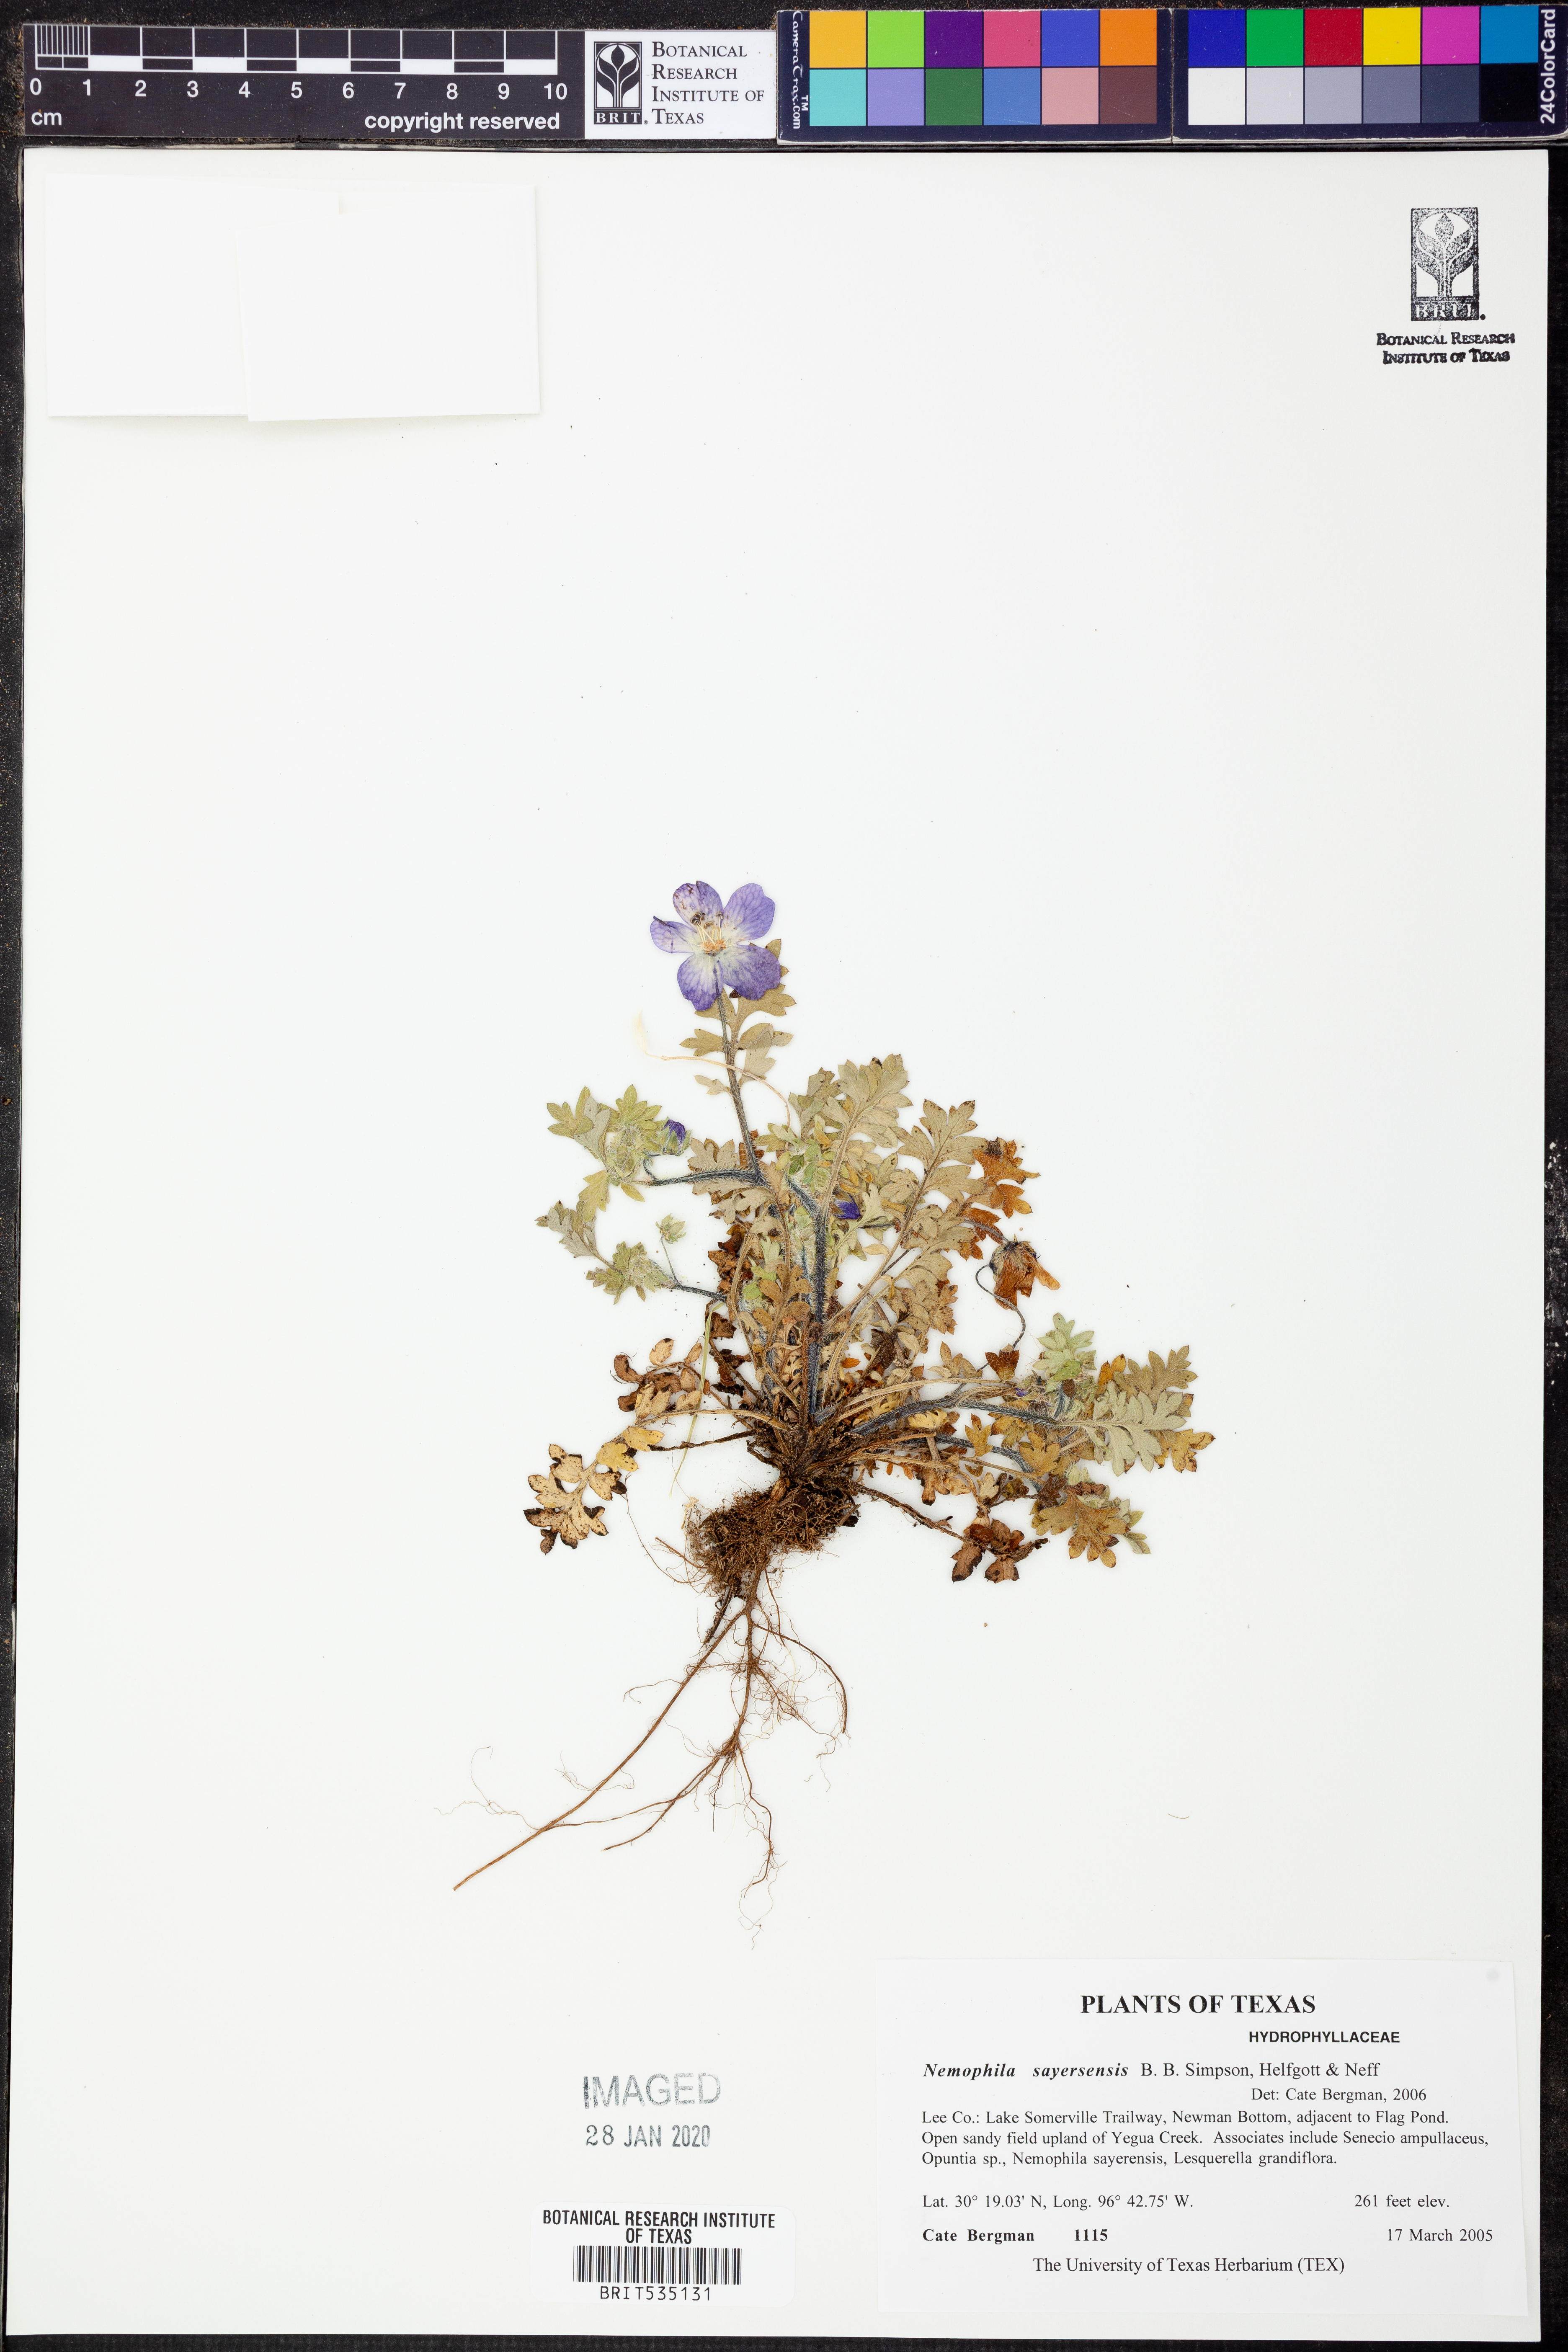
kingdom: Plantae
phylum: Tracheophyta
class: Magnoliopsida
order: Boraginales
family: Hydrophyllaceae
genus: Nemophila
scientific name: Nemophila sayersensis
